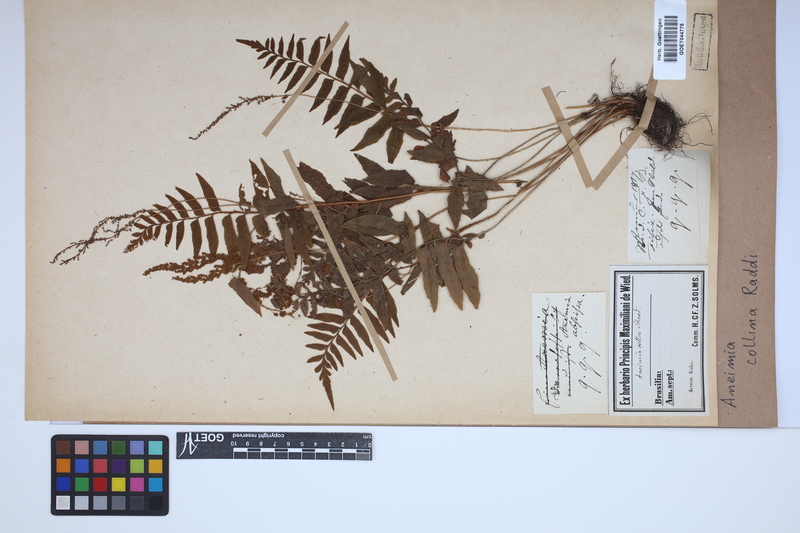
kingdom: Plantae
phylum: Tracheophyta
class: Polypodiopsida
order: Schizaeales
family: Anemiaceae
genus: Anemia
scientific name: Anemia collina
